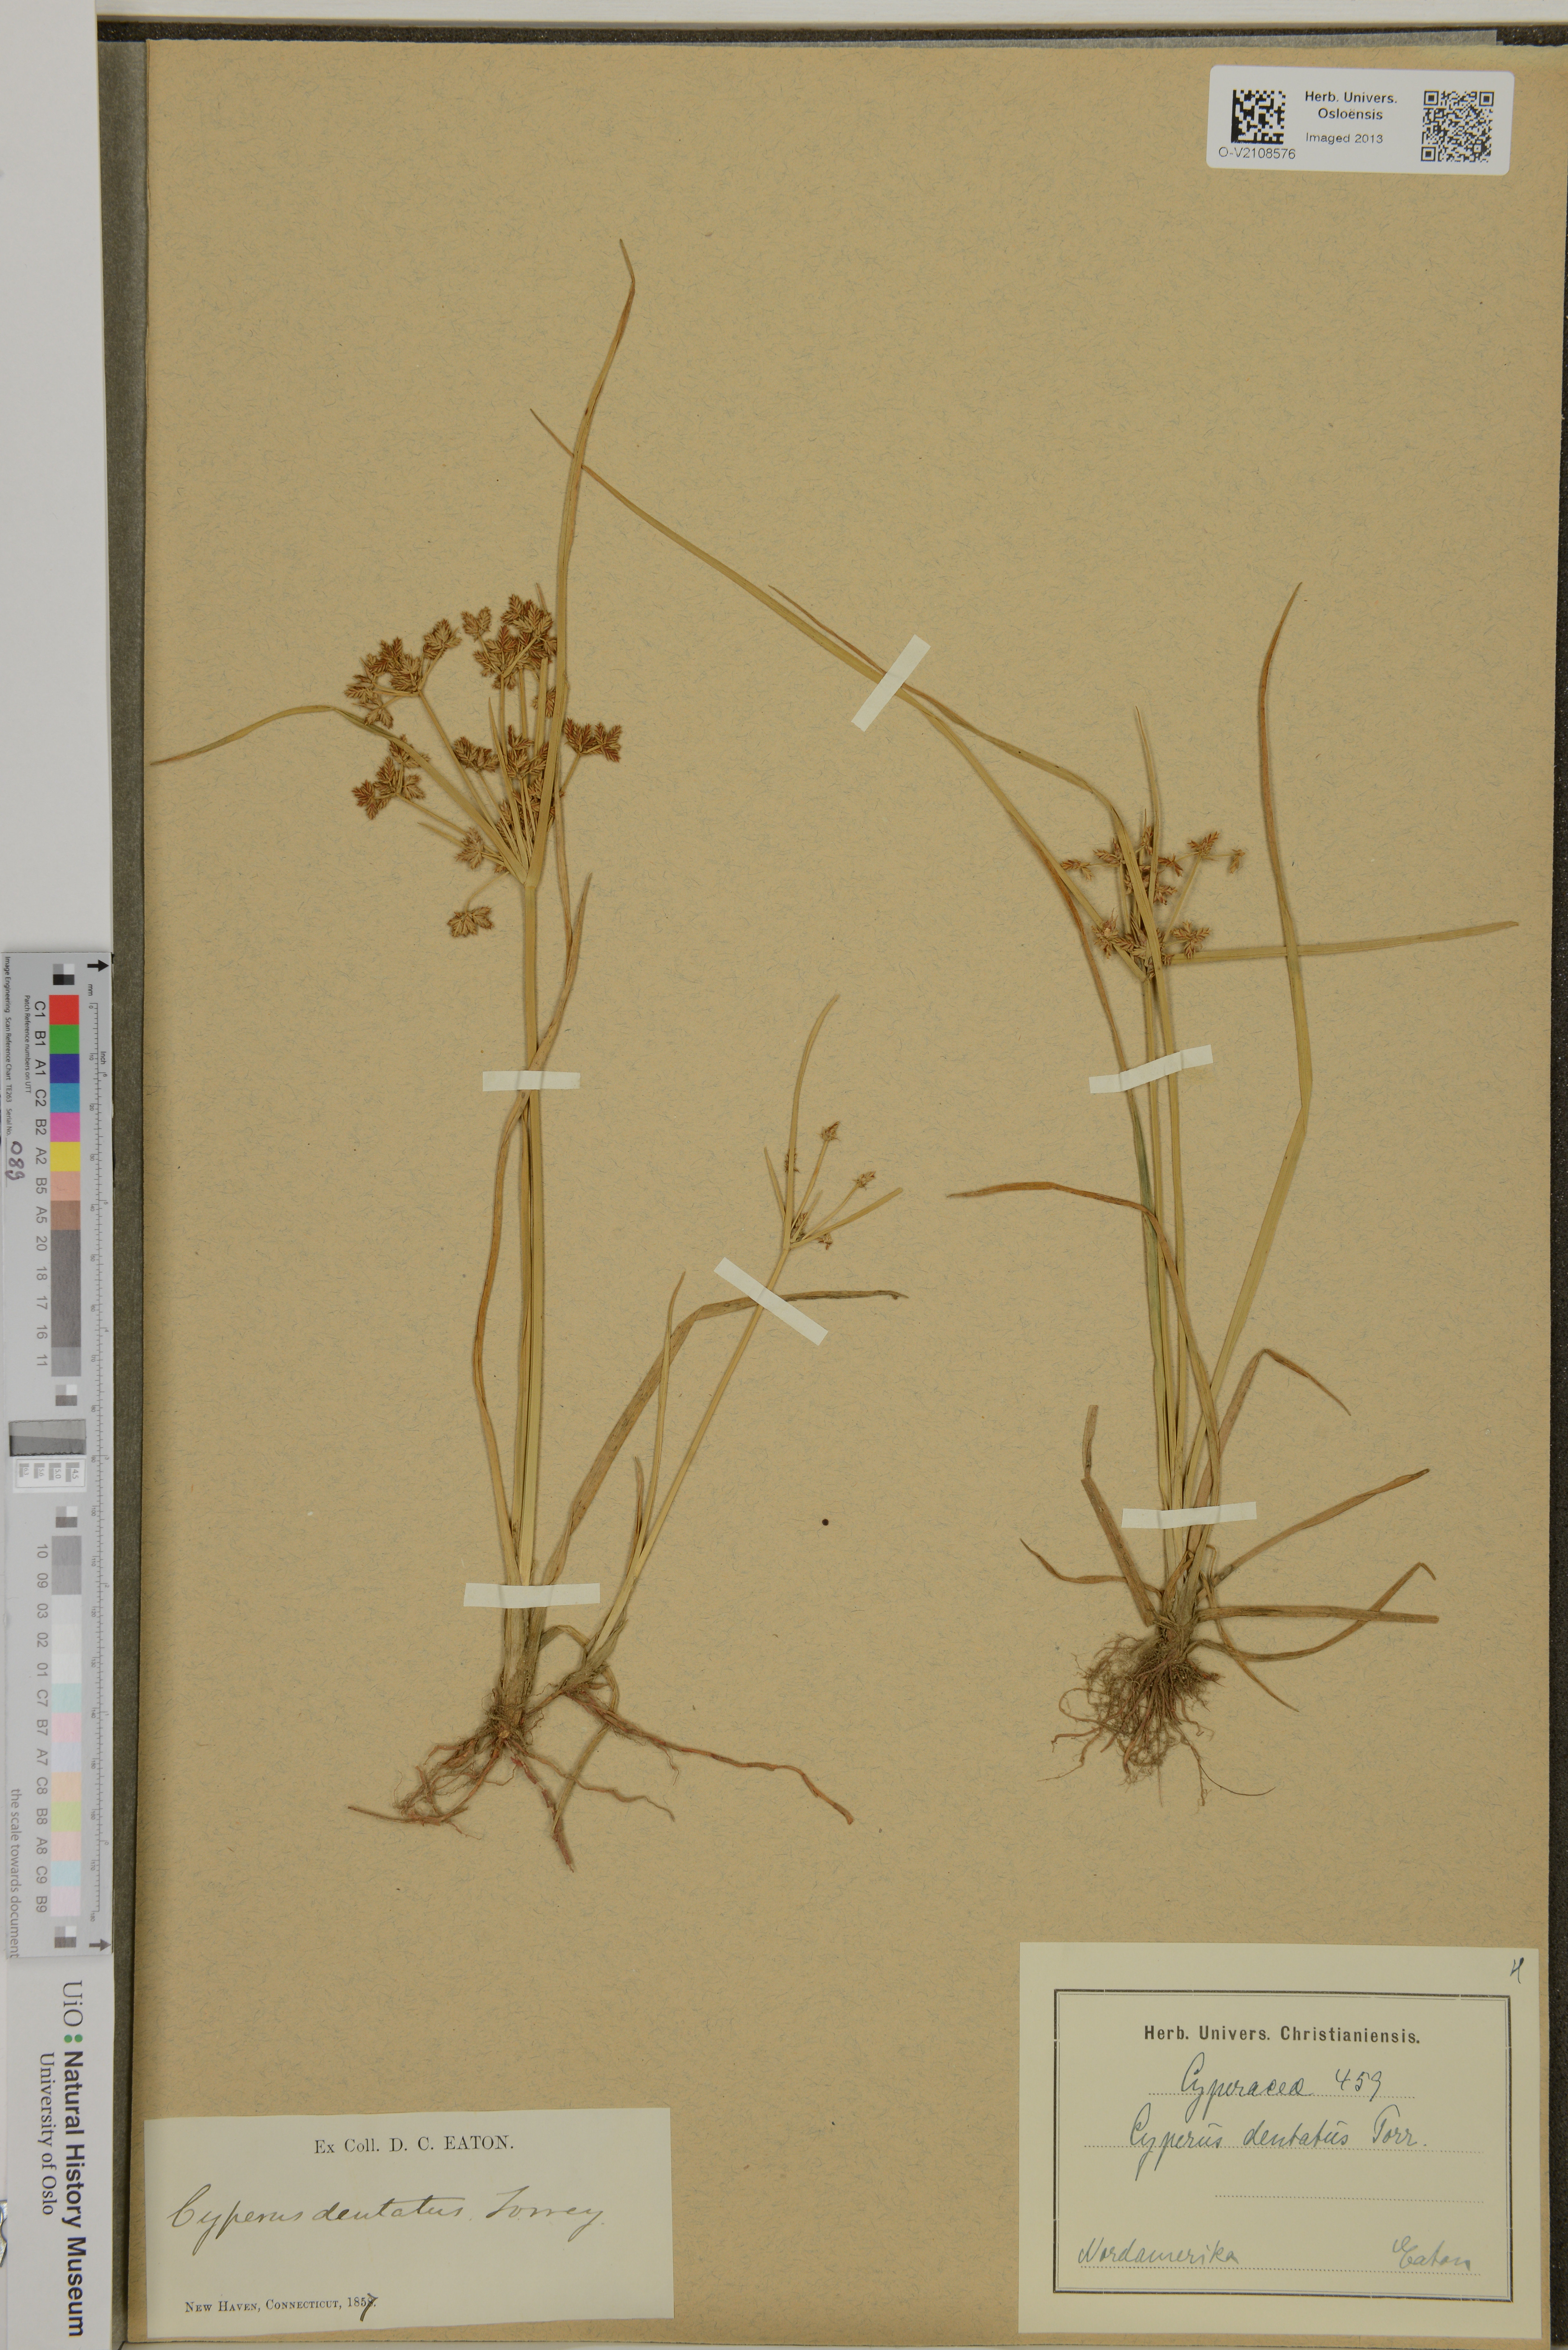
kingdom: Plantae
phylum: Tracheophyta
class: Liliopsida
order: Poales
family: Cyperaceae
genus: Cyperus
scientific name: Cyperus dentatus
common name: Dentate umbrella sedge
